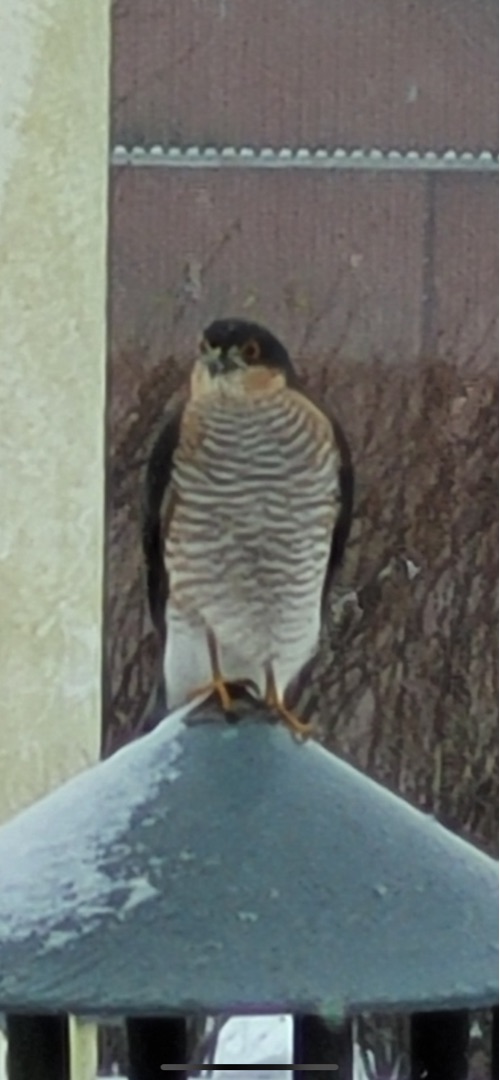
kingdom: Animalia
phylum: Chordata
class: Aves
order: Accipitriformes
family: Accipitridae
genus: Accipiter
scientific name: Accipiter nisus
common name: Spurvehøg
